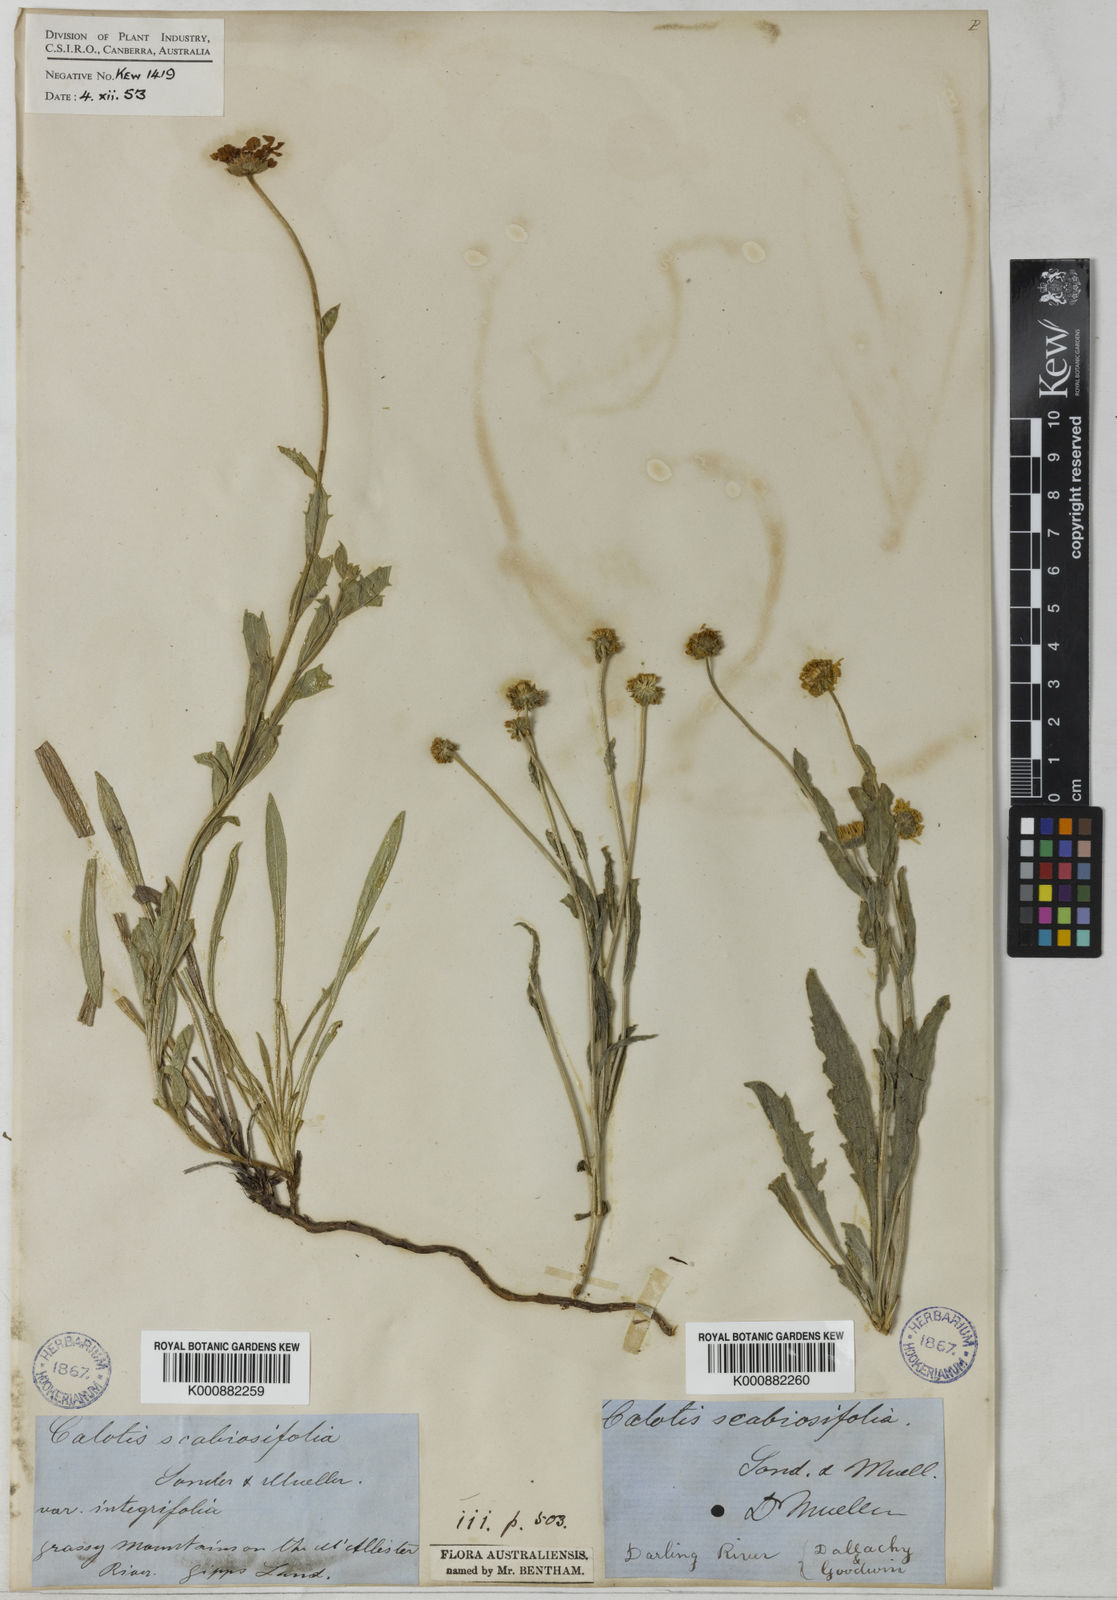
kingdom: Plantae
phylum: Tracheophyta
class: Magnoliopsida
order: Asterales
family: Asteraceae
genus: Calotis
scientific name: Calotis scabiosifolia
